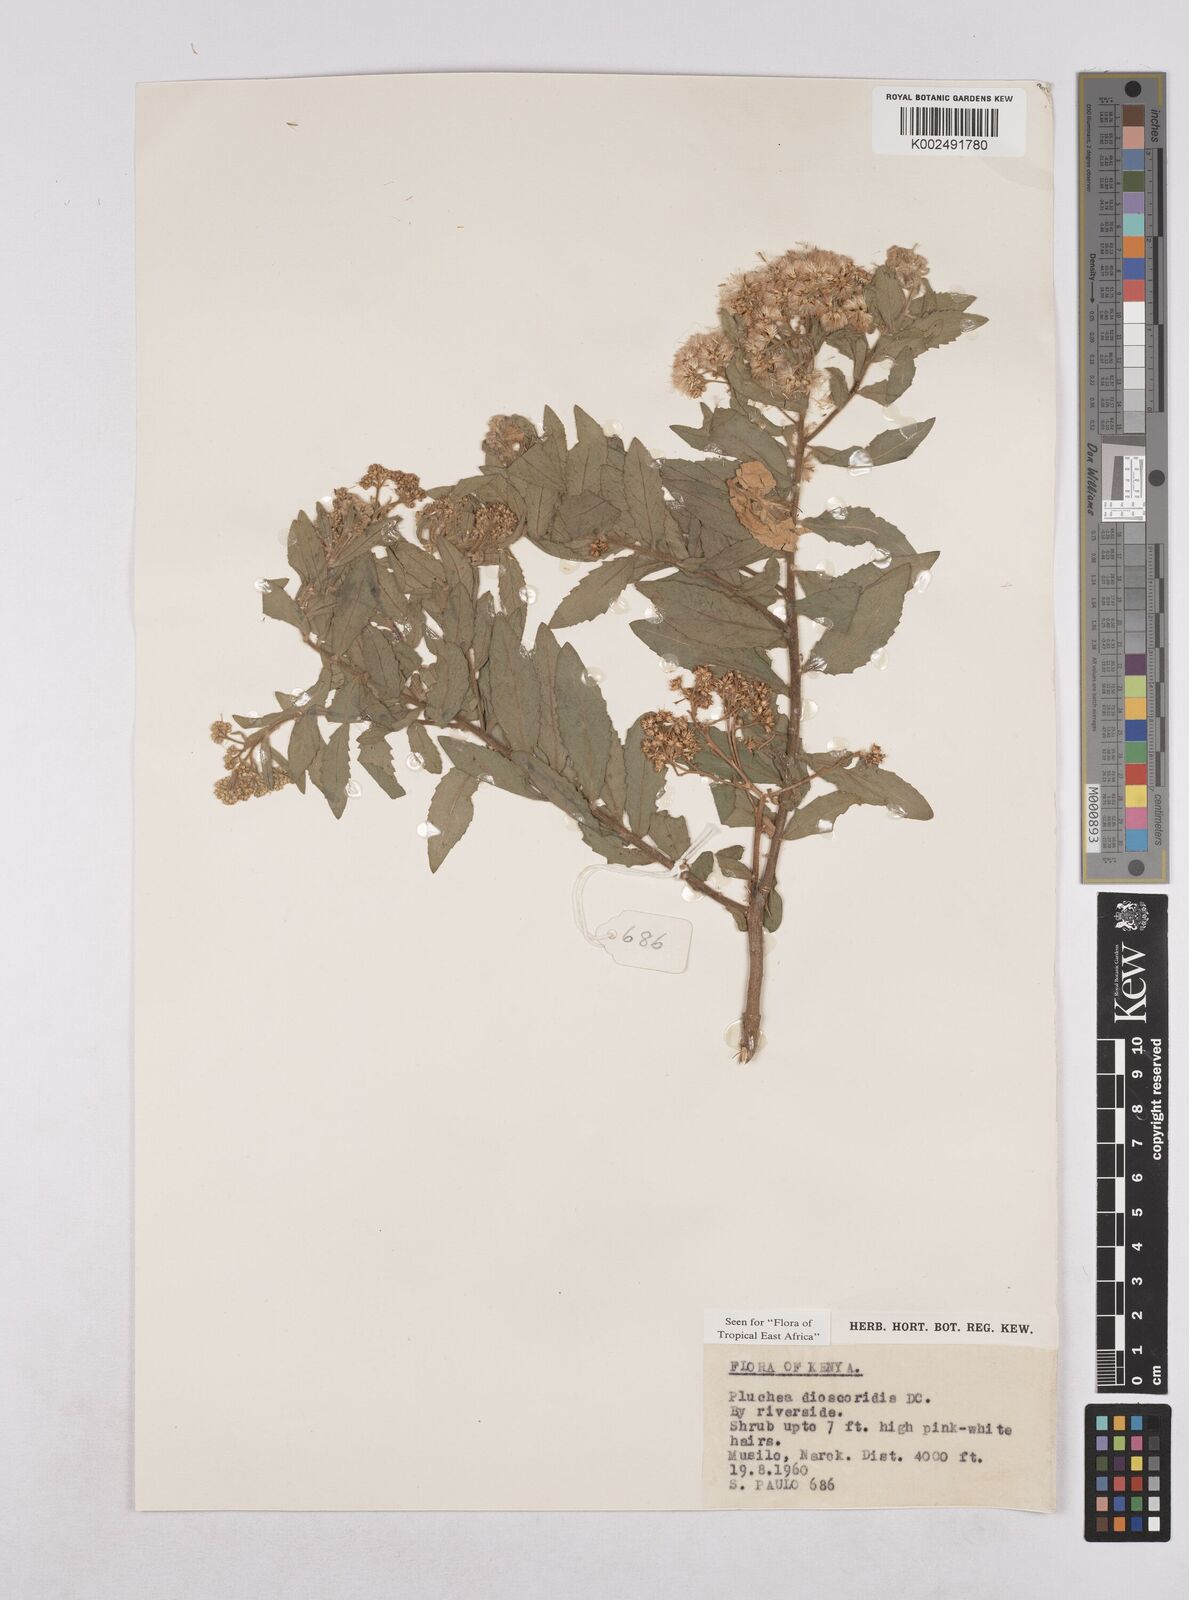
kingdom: Plantae
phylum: Tracheophyta
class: Magnoliopsida
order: Asterales
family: Asteraceae
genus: Pluchea
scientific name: Pluchea dioscoridis
